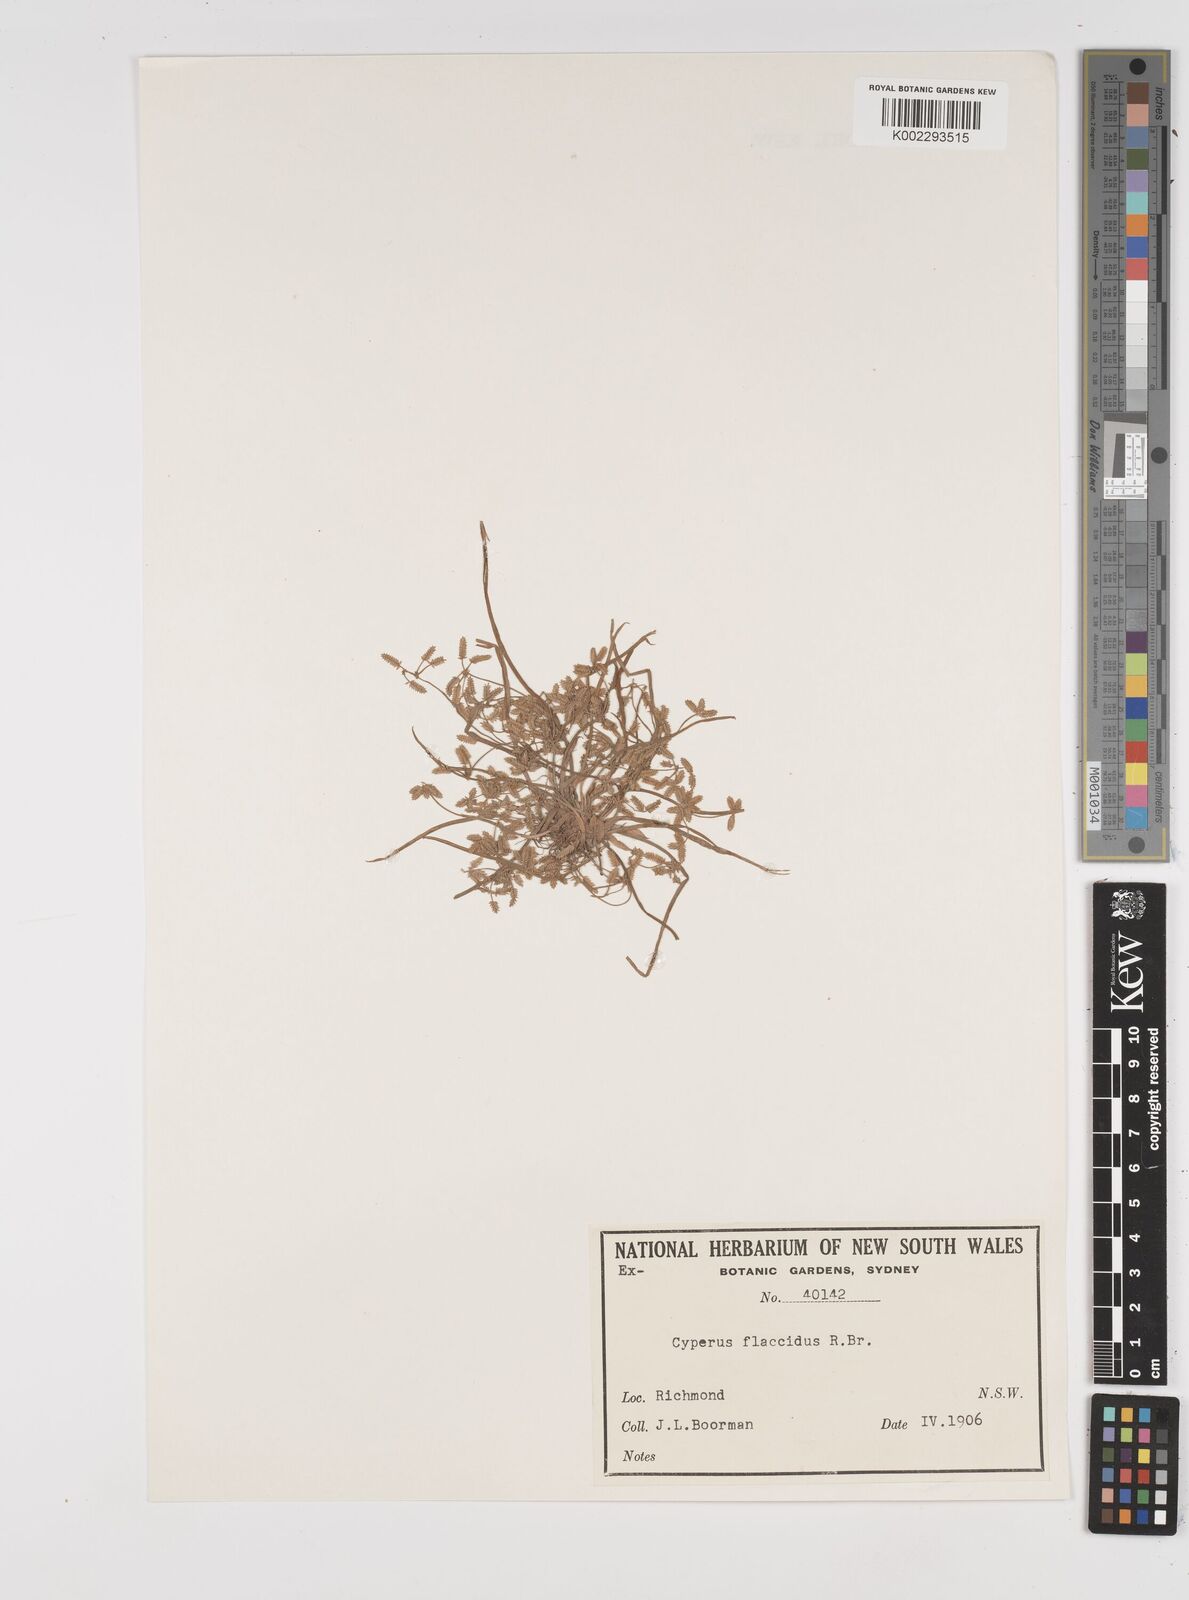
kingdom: Plantae
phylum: Tracheophyta
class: Liliopsida
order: Poales
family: Cyperaceae
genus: Cyperus
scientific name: Cyperus flaccidus
